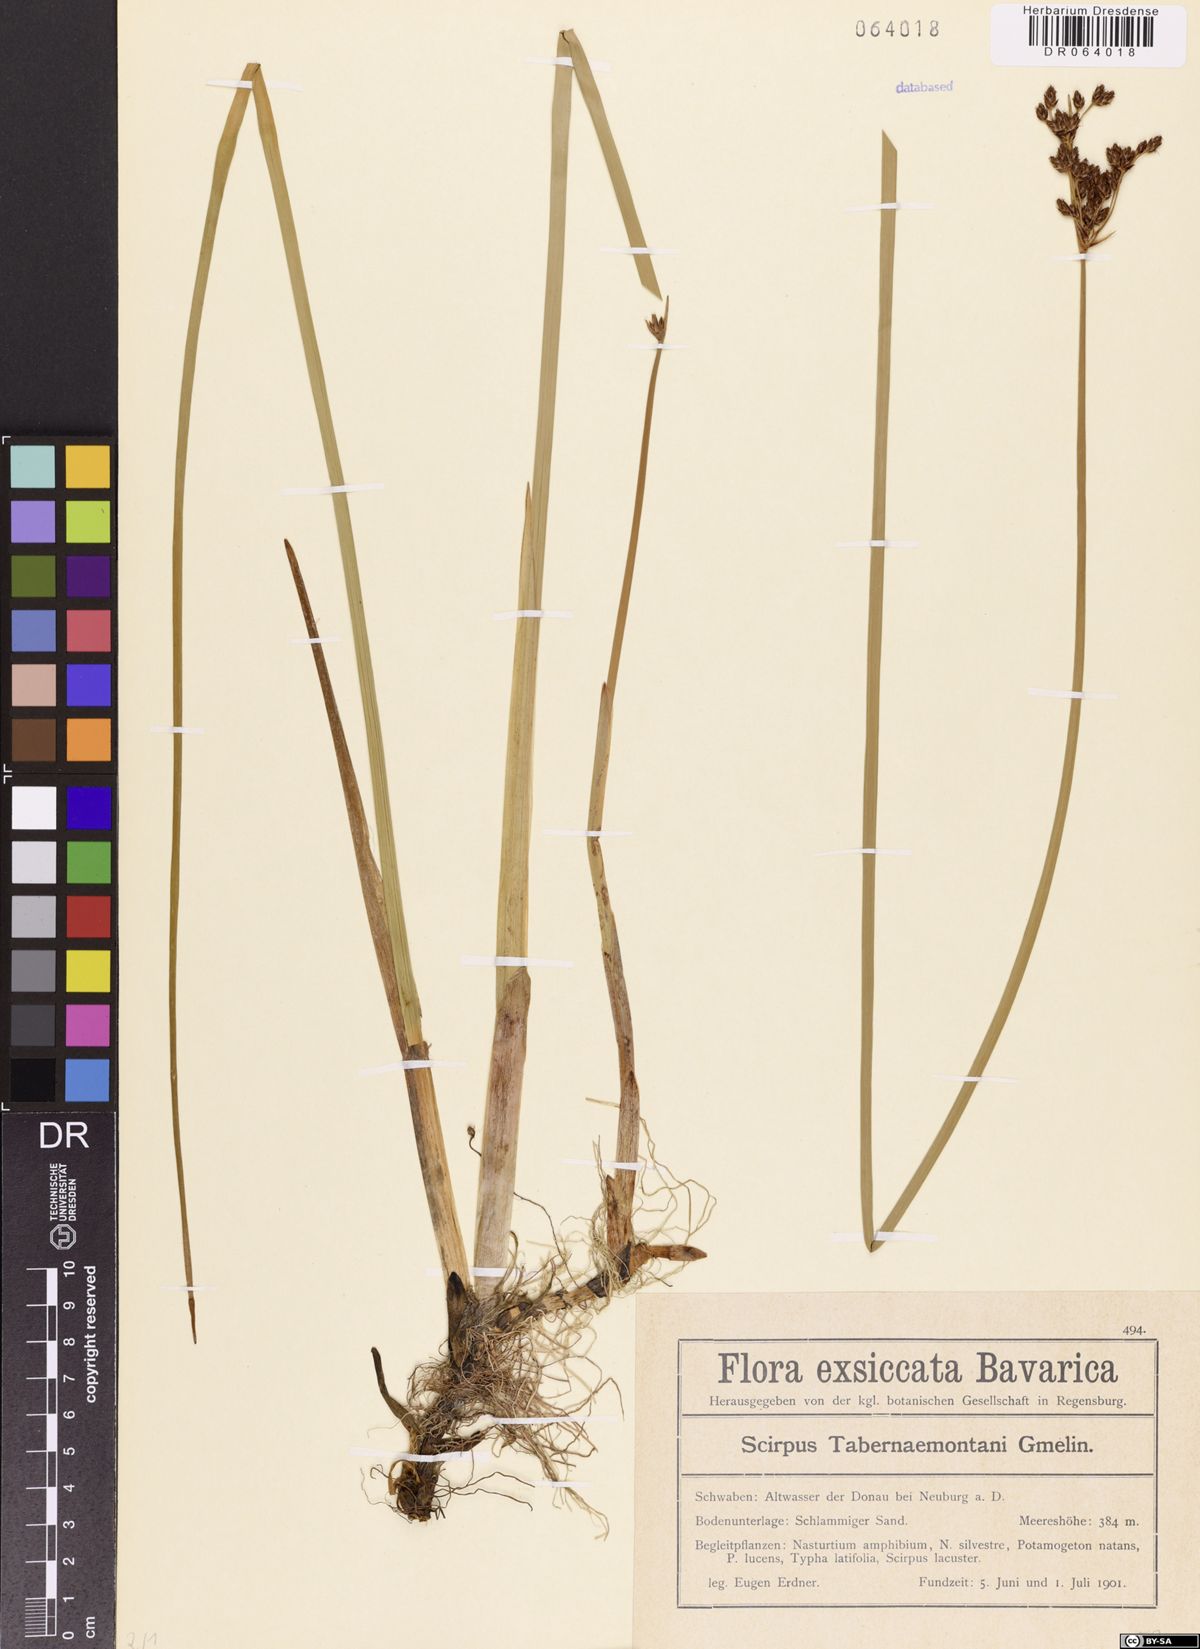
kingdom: Plantae
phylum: Tracheophyta
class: Liliopsida
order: Poales
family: Cyperaceae
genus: Schoenoplectus
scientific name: Schoenoplectus tabernaemontani
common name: Grey club-rush
